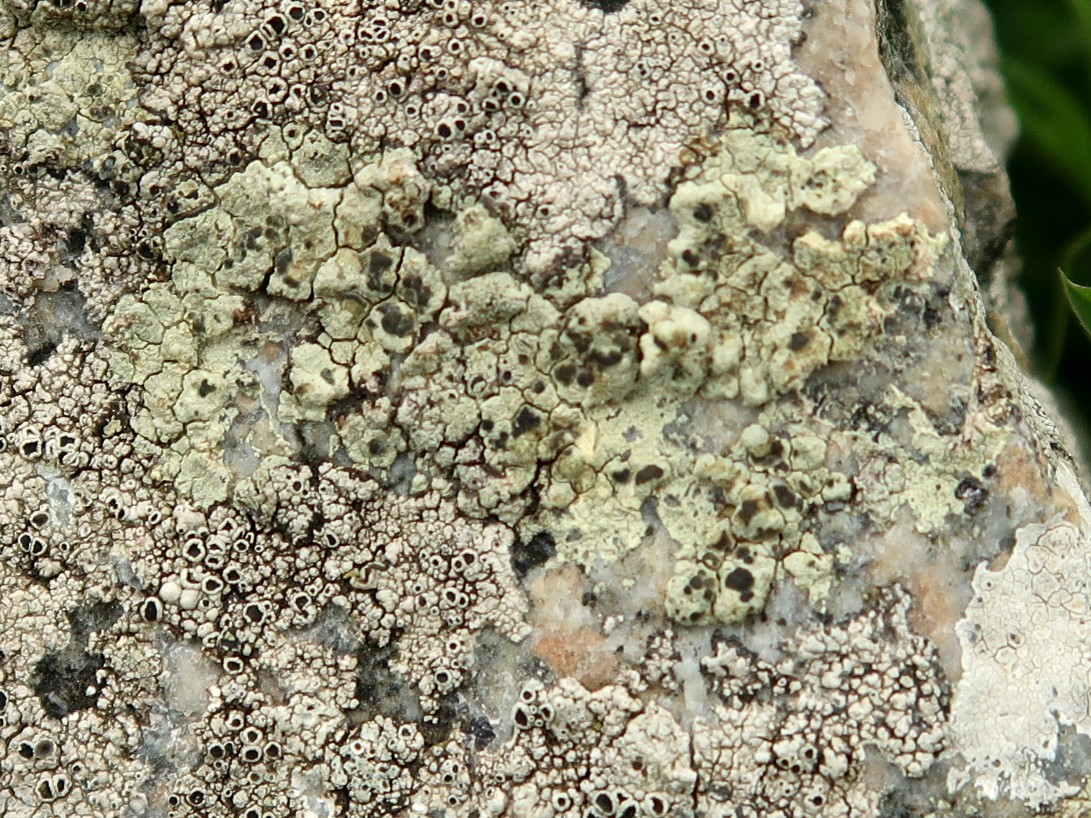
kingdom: Fungi
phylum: Ascomycota
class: Lecanoromycetes
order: Lecanorales
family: Lecanoraceae
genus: Glaucomaria
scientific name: Glaucomaria sulphurea
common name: svovlgul kantskivelav
